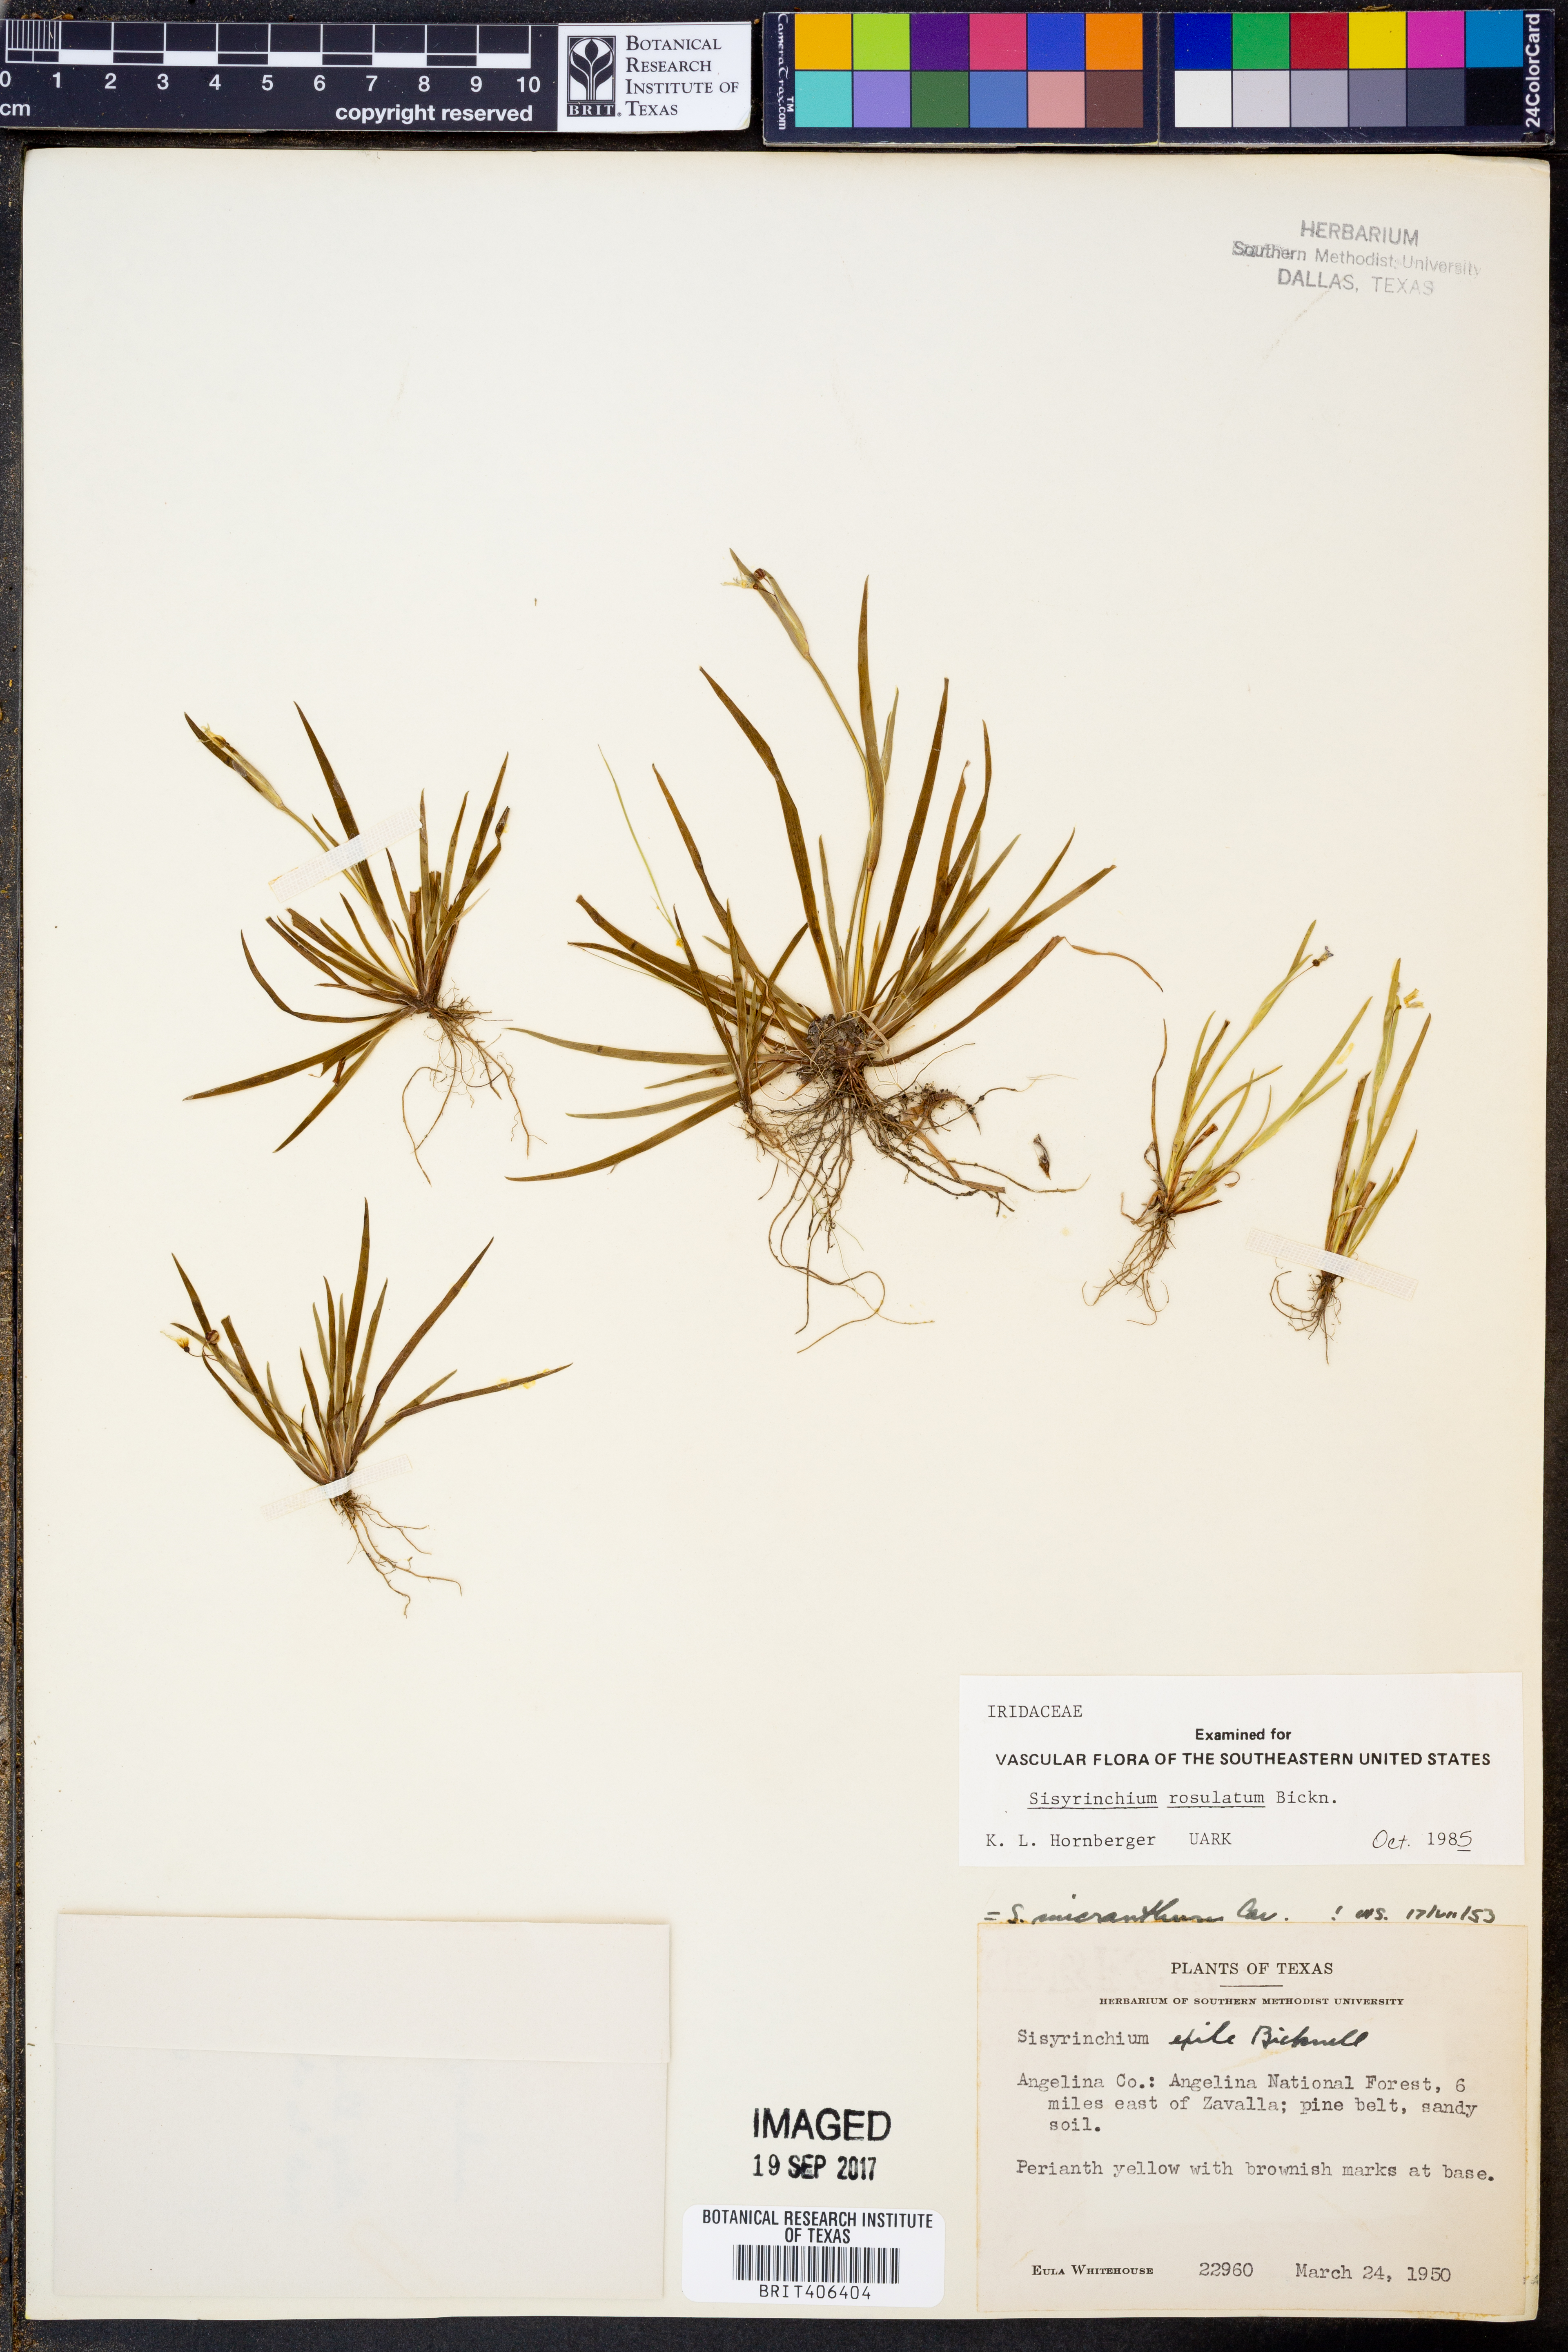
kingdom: Plantae
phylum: Tracheophyta
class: Liliopsida
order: Asparagales
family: Iridaceae
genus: Sisyrinchium
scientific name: Sisyrinchium rosulatum
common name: Annual blue-eyed grass
